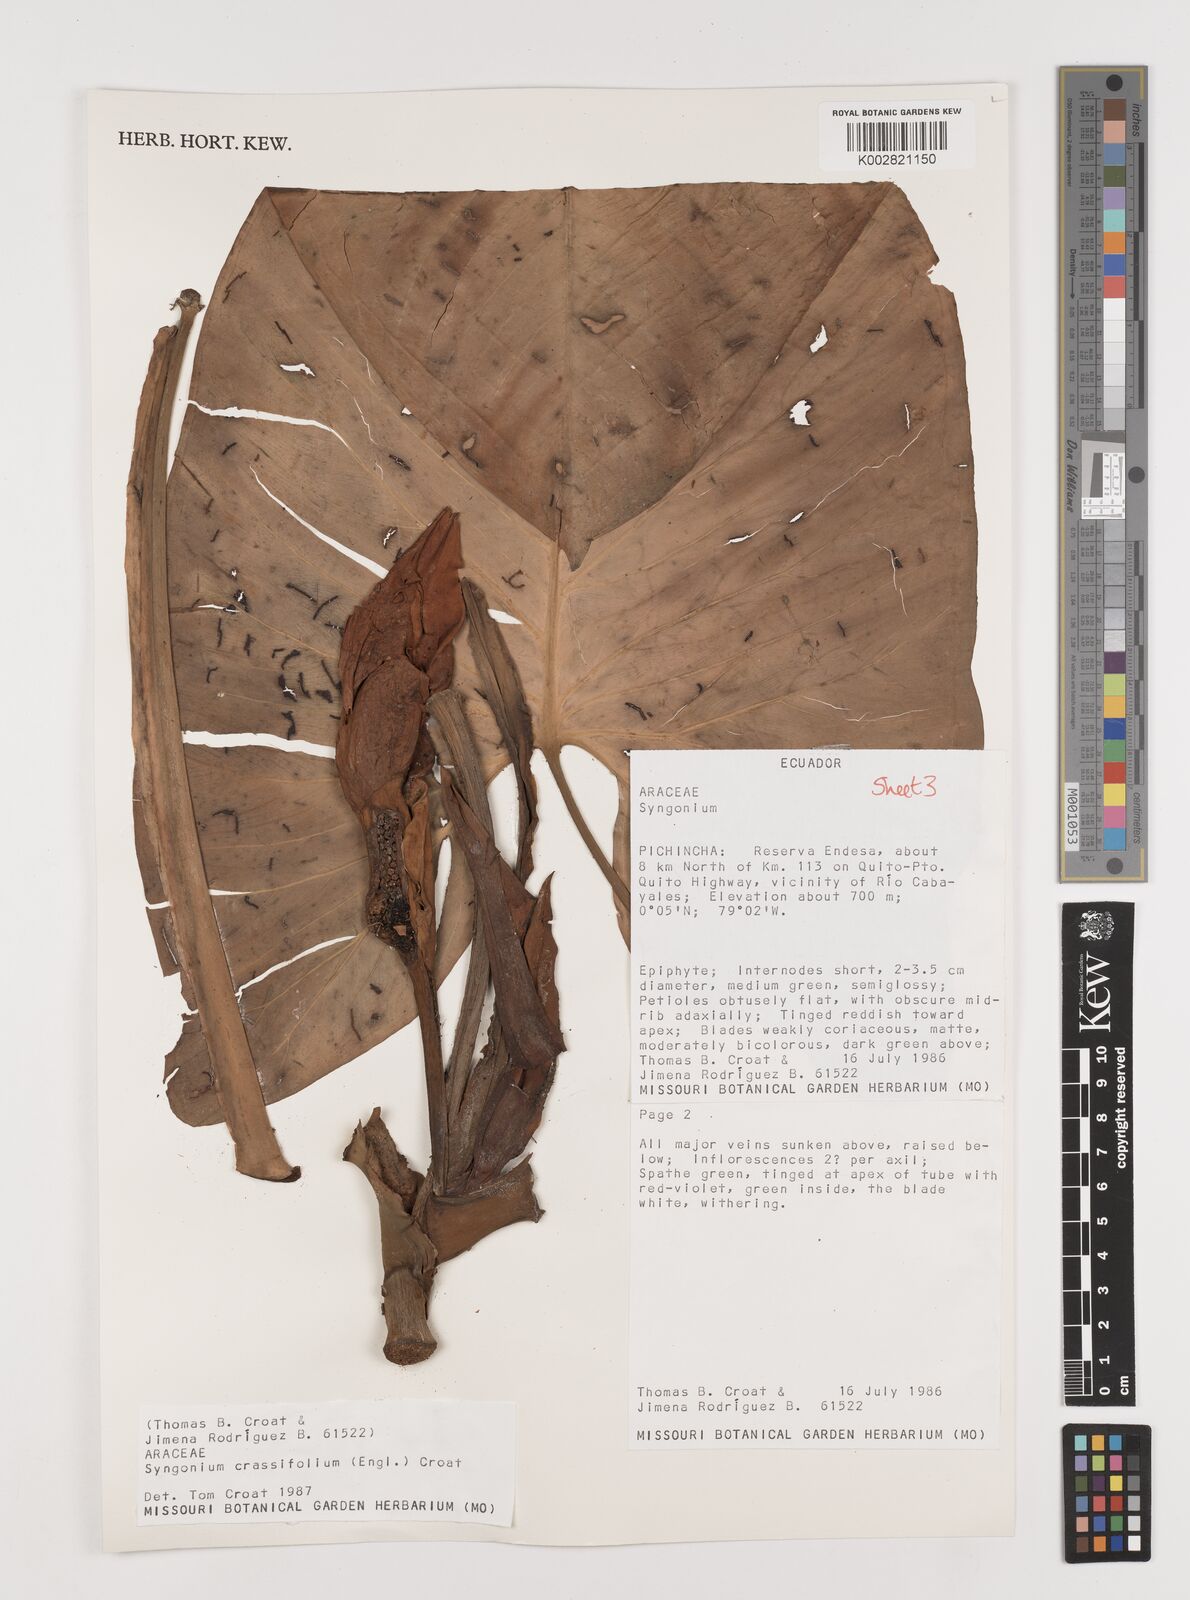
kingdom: Plantae
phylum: Tracheophyta
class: Liliopsida
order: Alismatales
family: Araceae
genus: Syngonium
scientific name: Syngonium crassifolium
